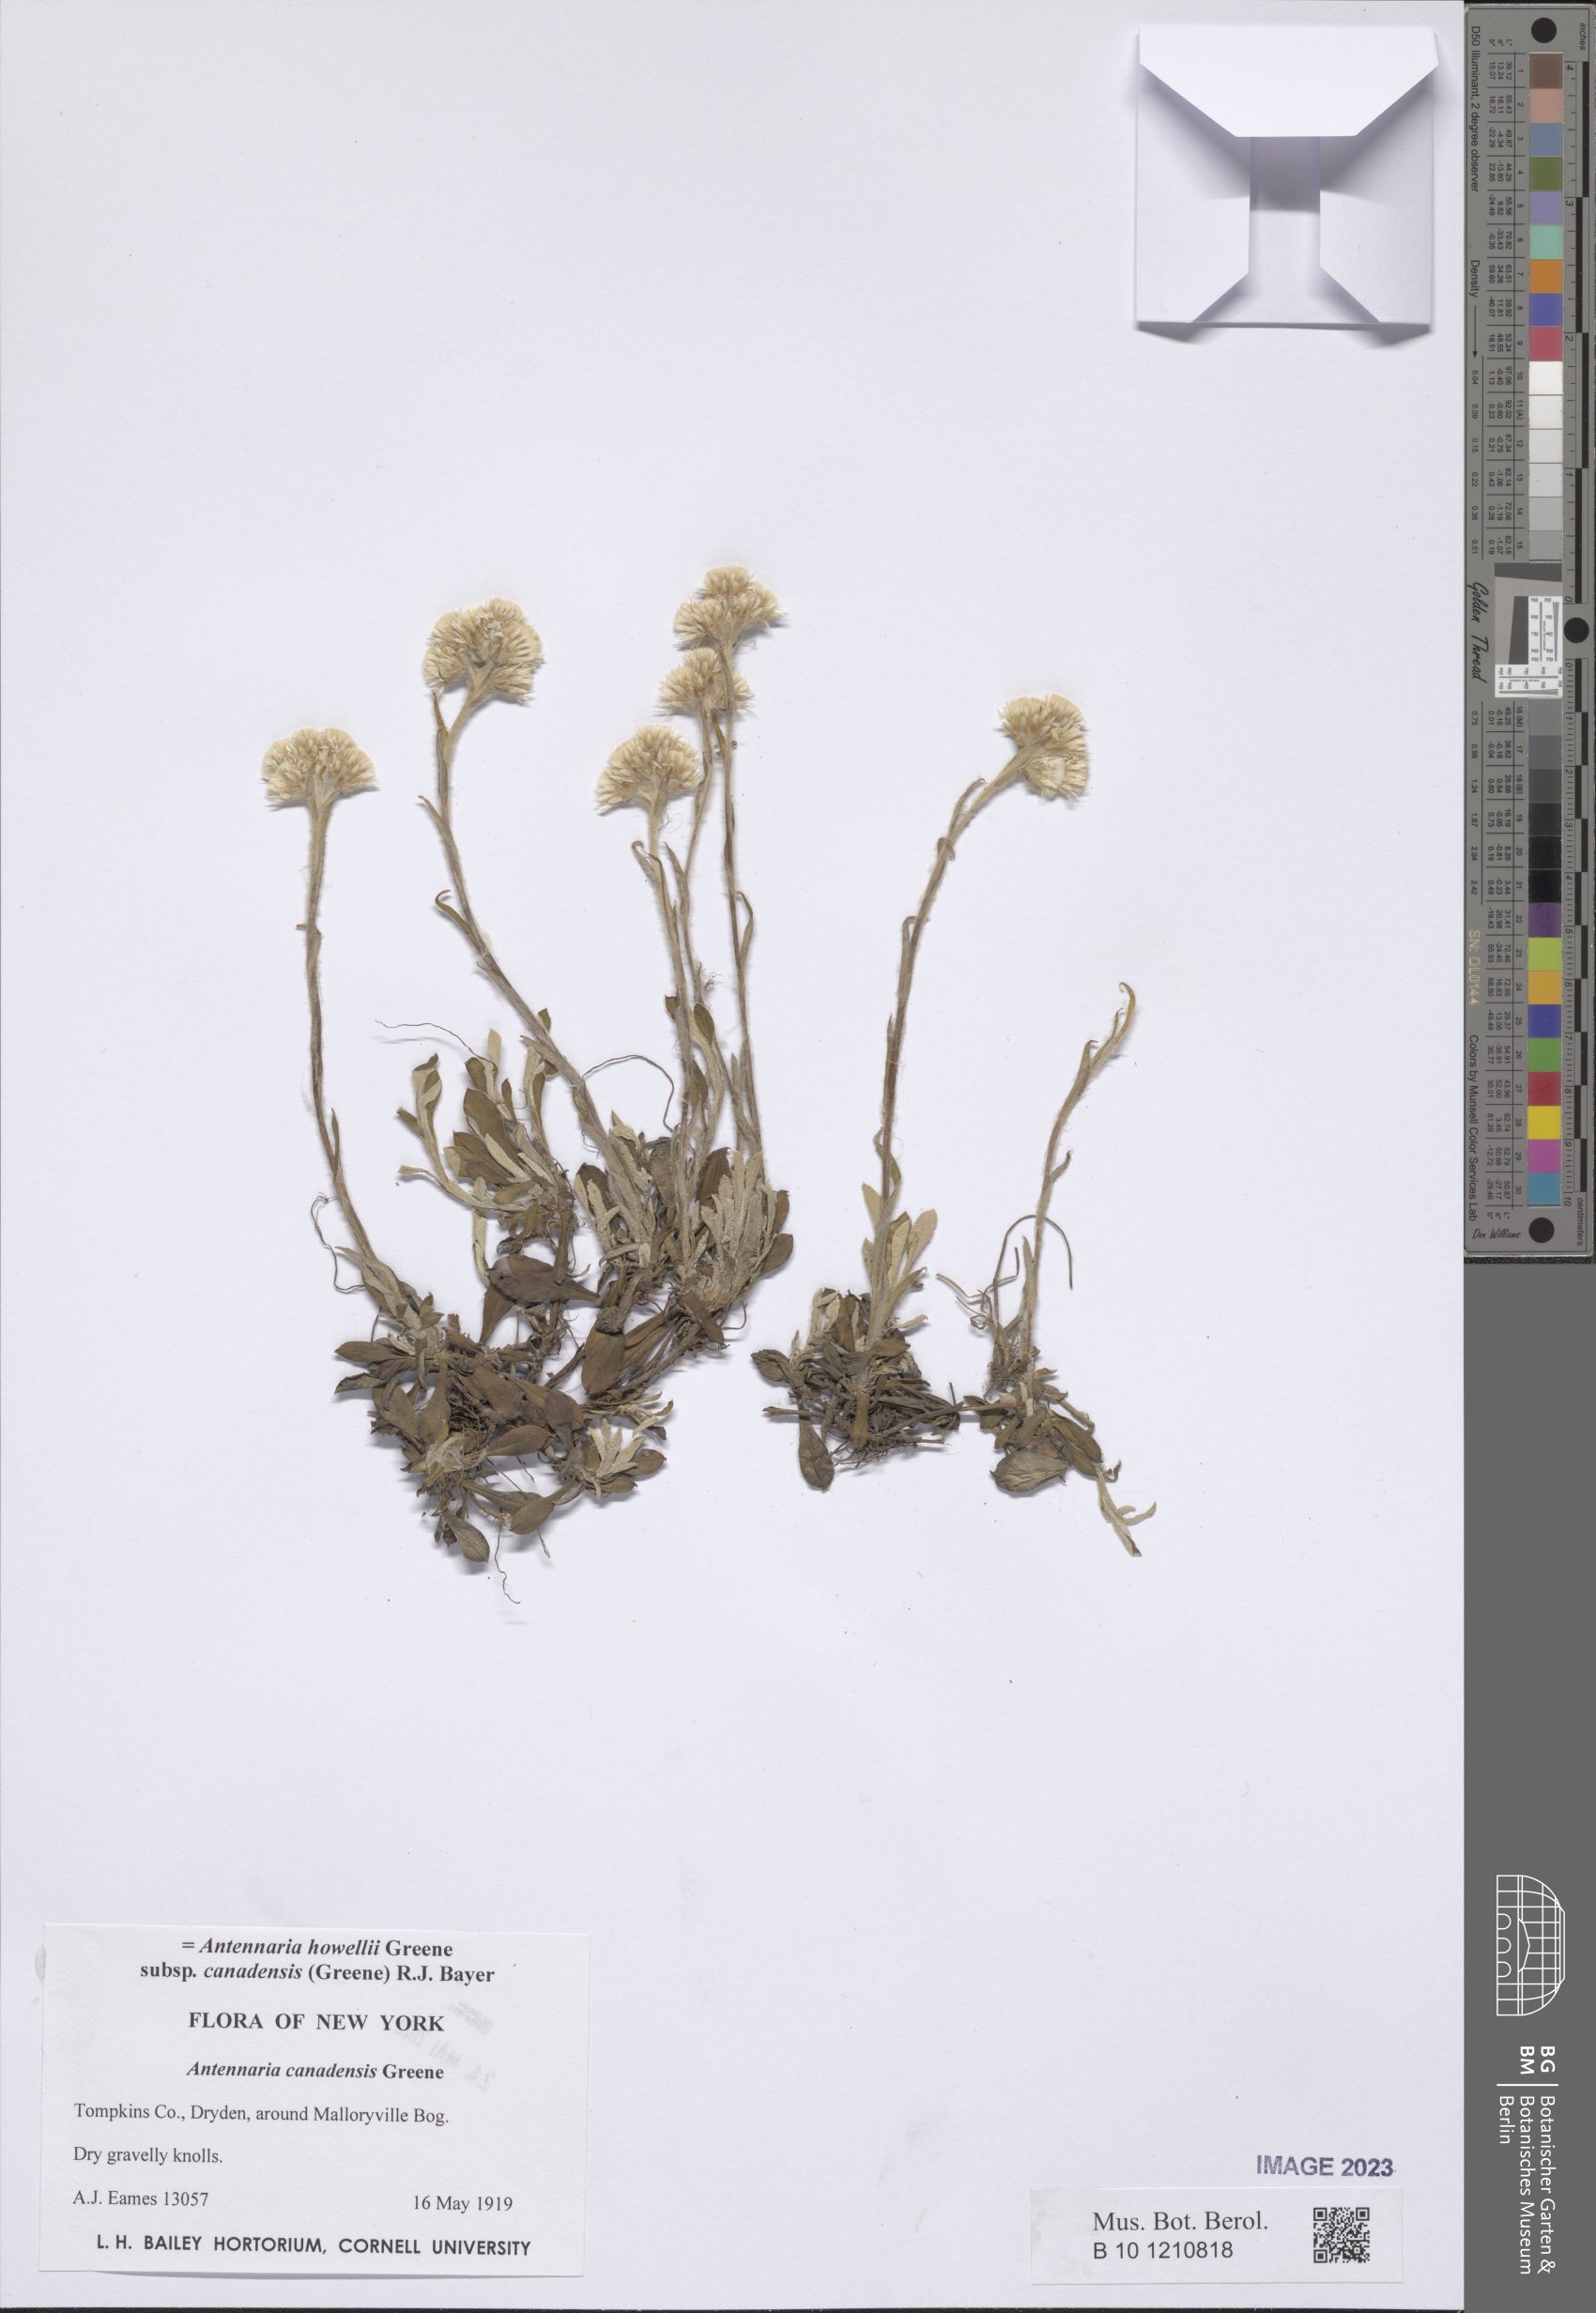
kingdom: Plantae
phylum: Tracheophyta
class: Magnoliopsida
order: Asterales
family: Asteraceae
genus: Antennaria
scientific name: Antennaria howellii
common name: Howell's pussytoes
